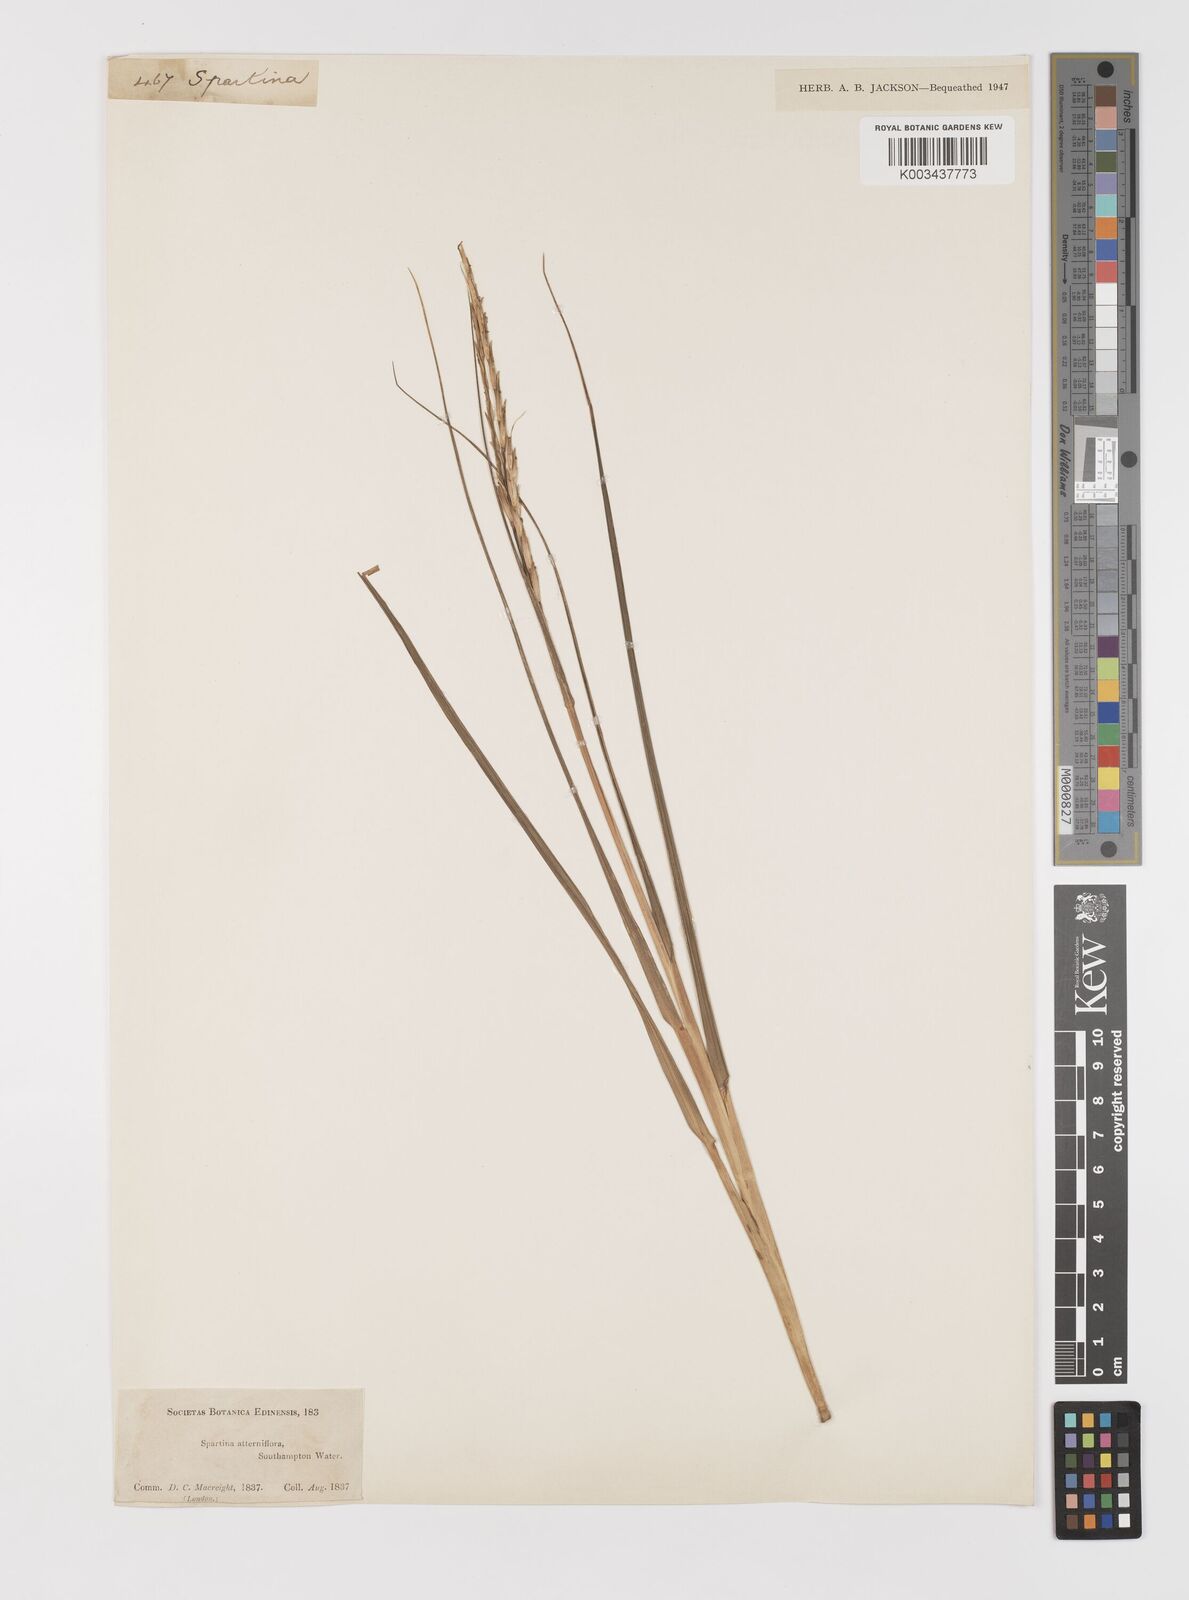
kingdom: Plantae
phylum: Tracheophyta
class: Liliopsida
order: Poales
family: Poaceae
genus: Sporobolus
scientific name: Sporobolus alterniflorus
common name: Atlantic cordgrass
